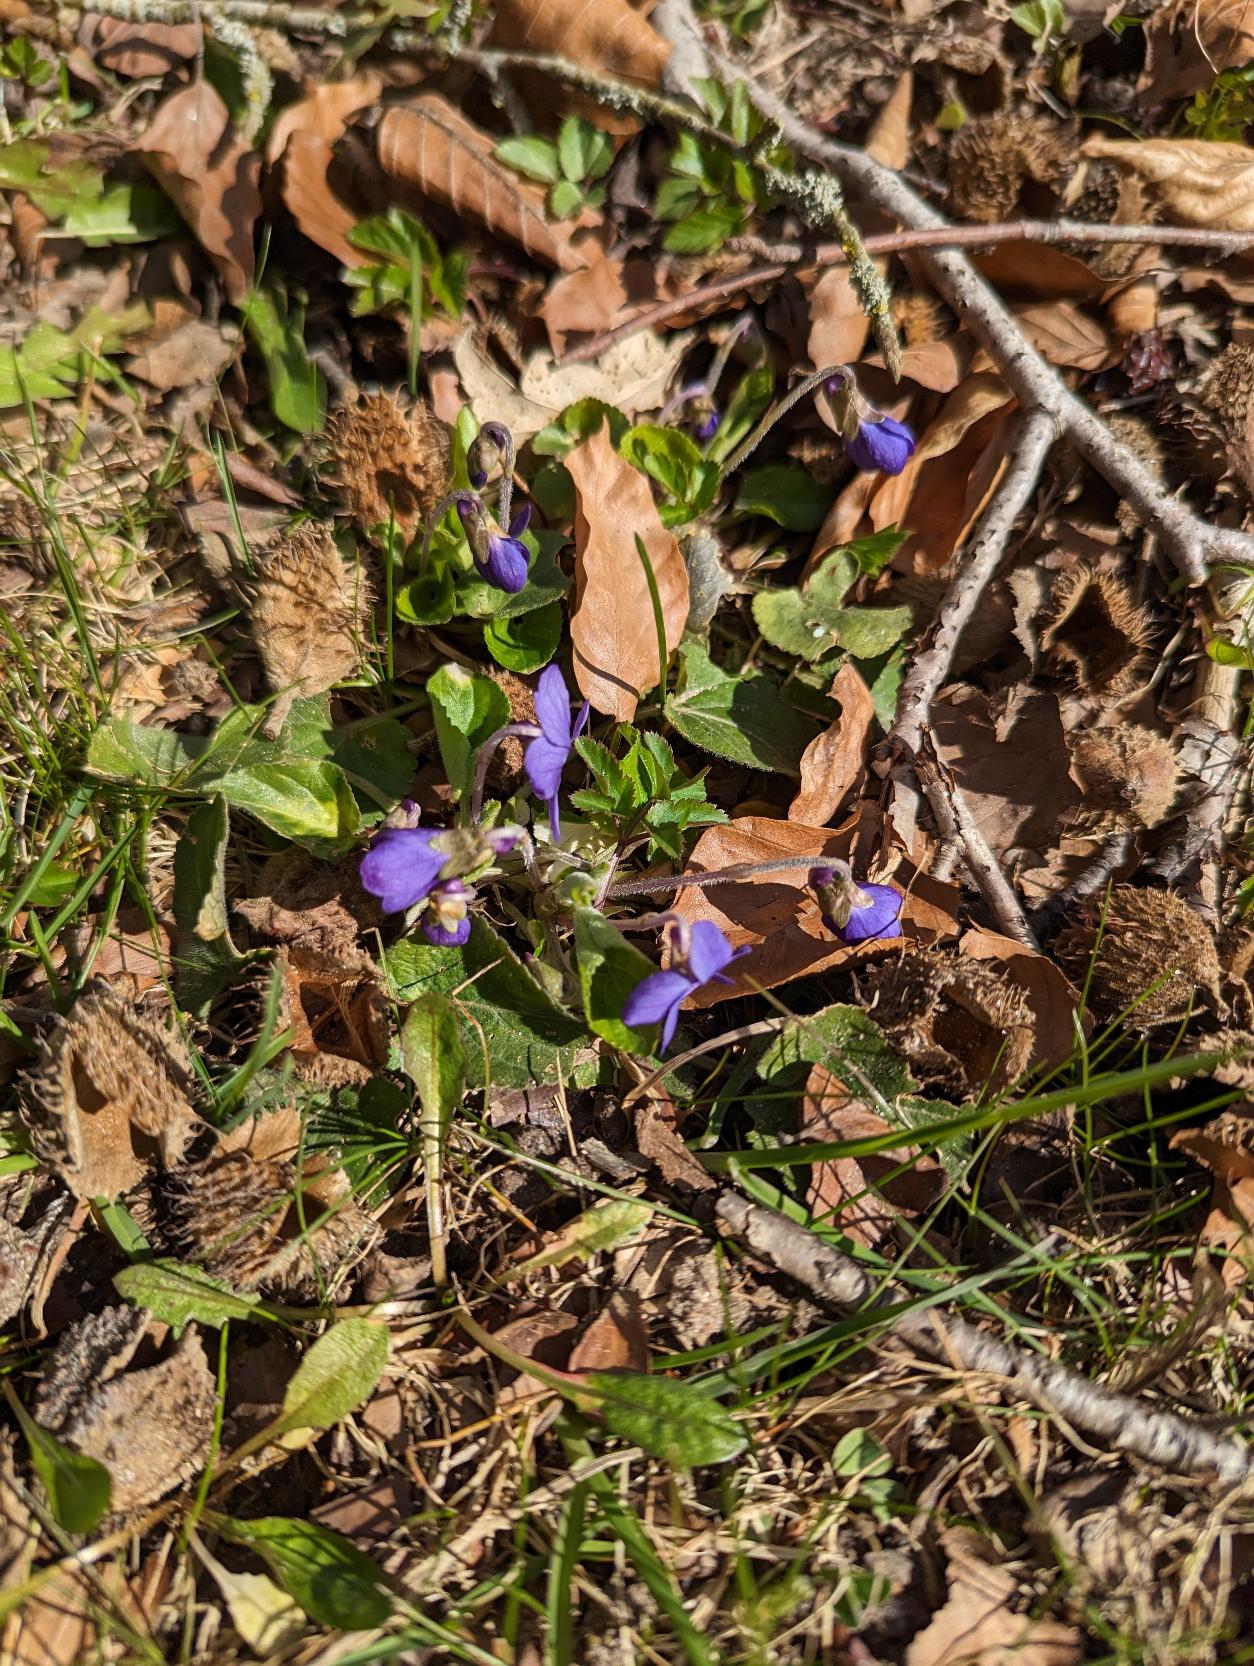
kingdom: Plantae
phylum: Tracheophyta
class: Magnoliopsida
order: Malpighiales
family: Violaceae
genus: Viola
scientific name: Viola odorata
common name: Marts-viol
